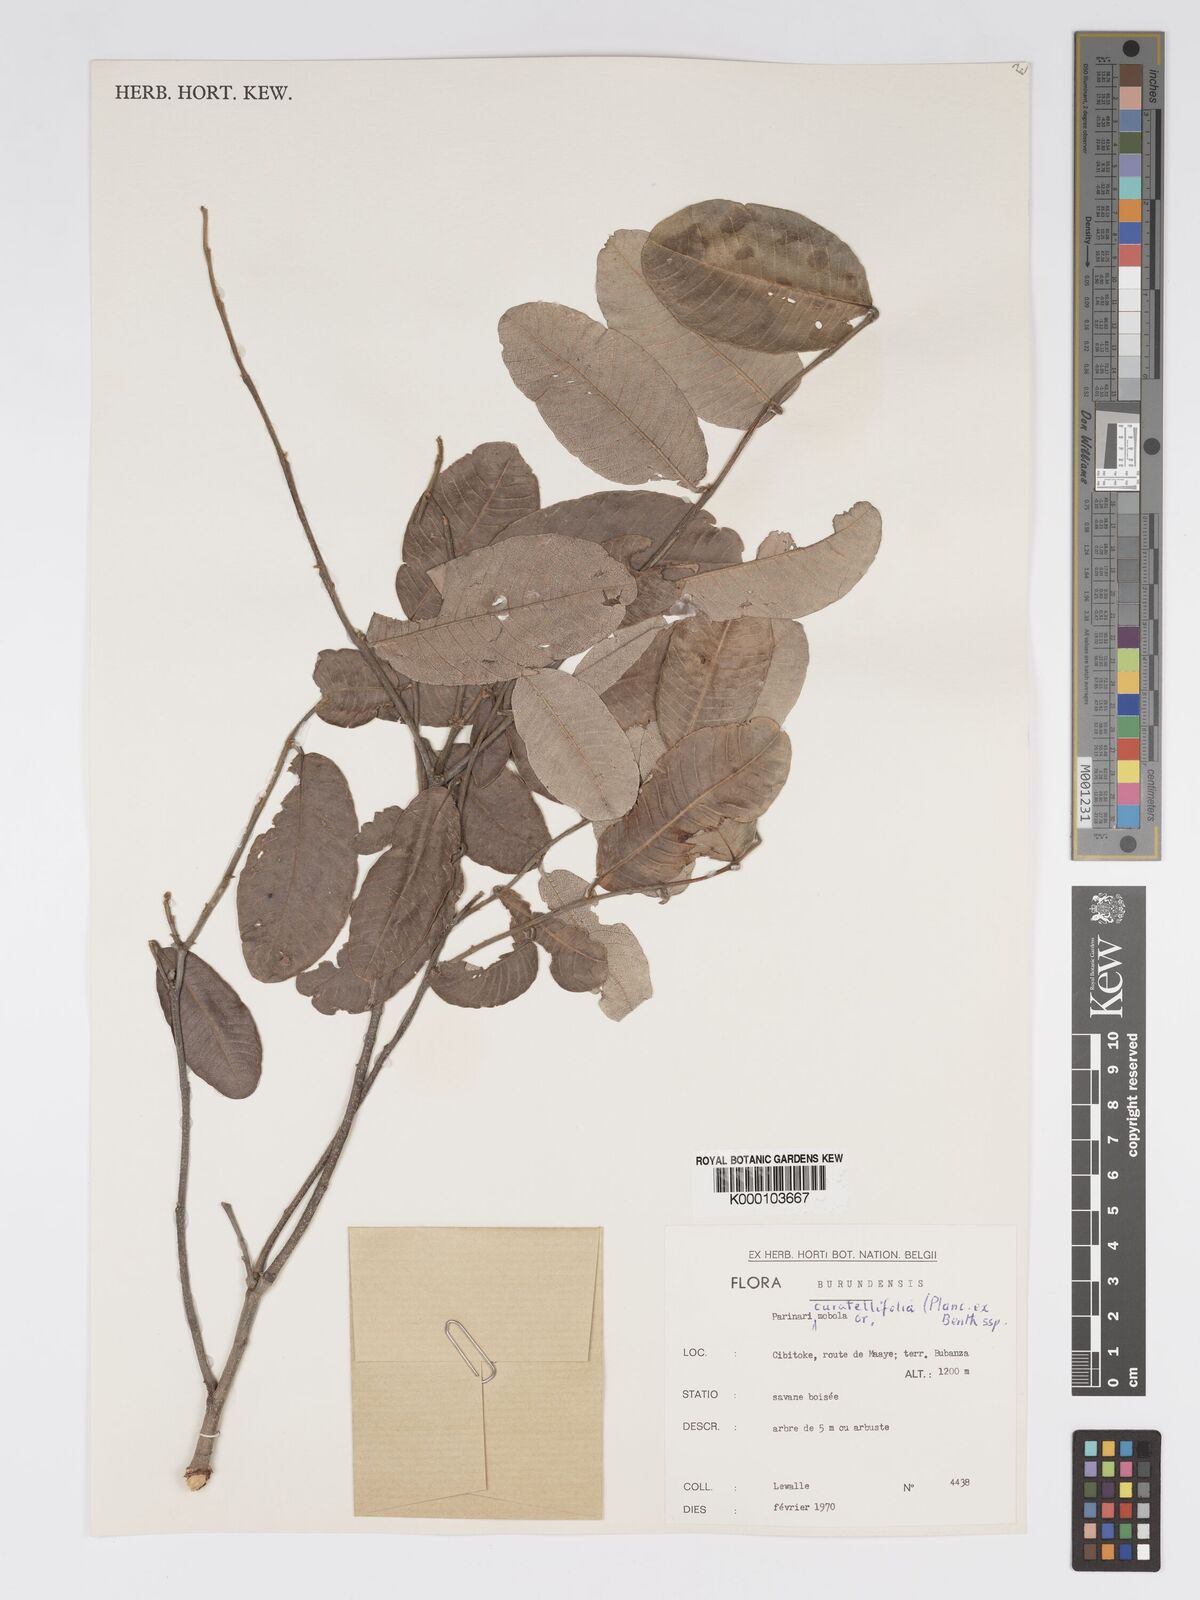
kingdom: Plantae
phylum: Tracheophyta
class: Magnoliopsida
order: Malpighiales
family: Chrysobalanaceae
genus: Parinari
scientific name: Parinari curatellifolia
